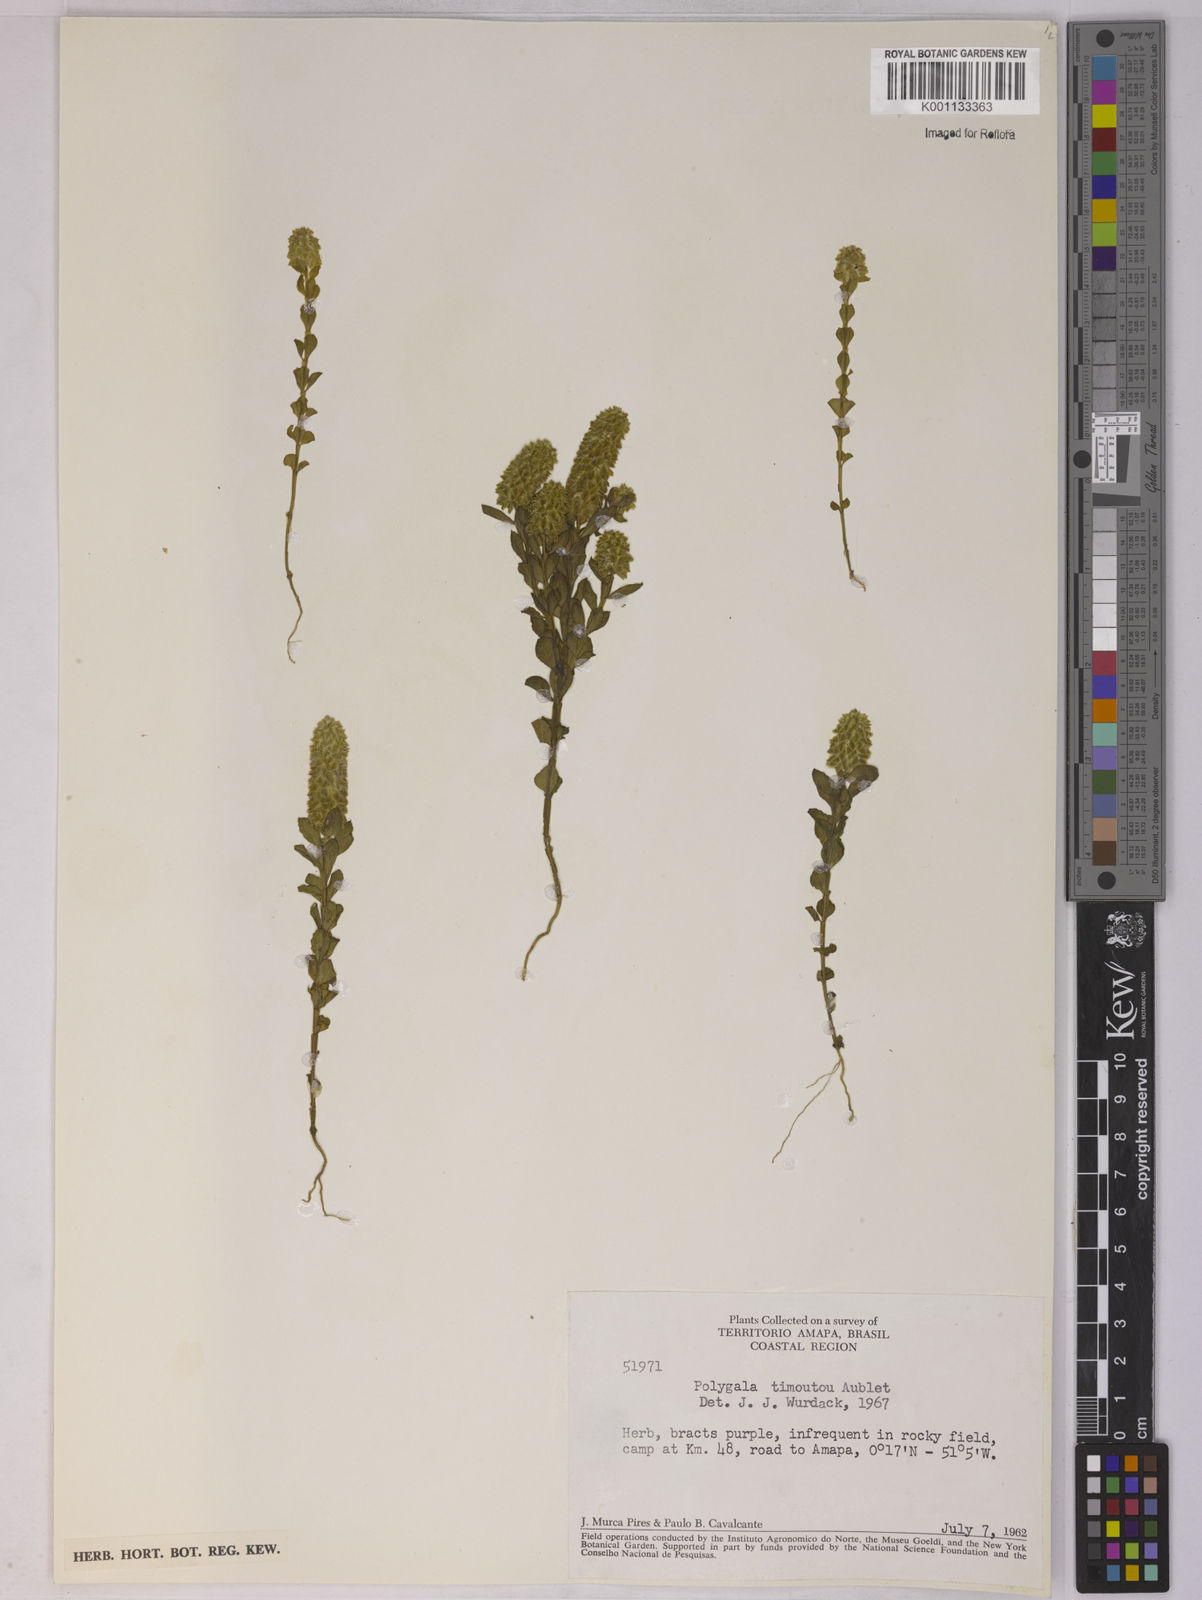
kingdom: Plantae
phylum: Tracheophyta
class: Magnoliopsida
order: Fabales
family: Polygalaceae
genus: Polygala
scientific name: Polygala timoutoides
